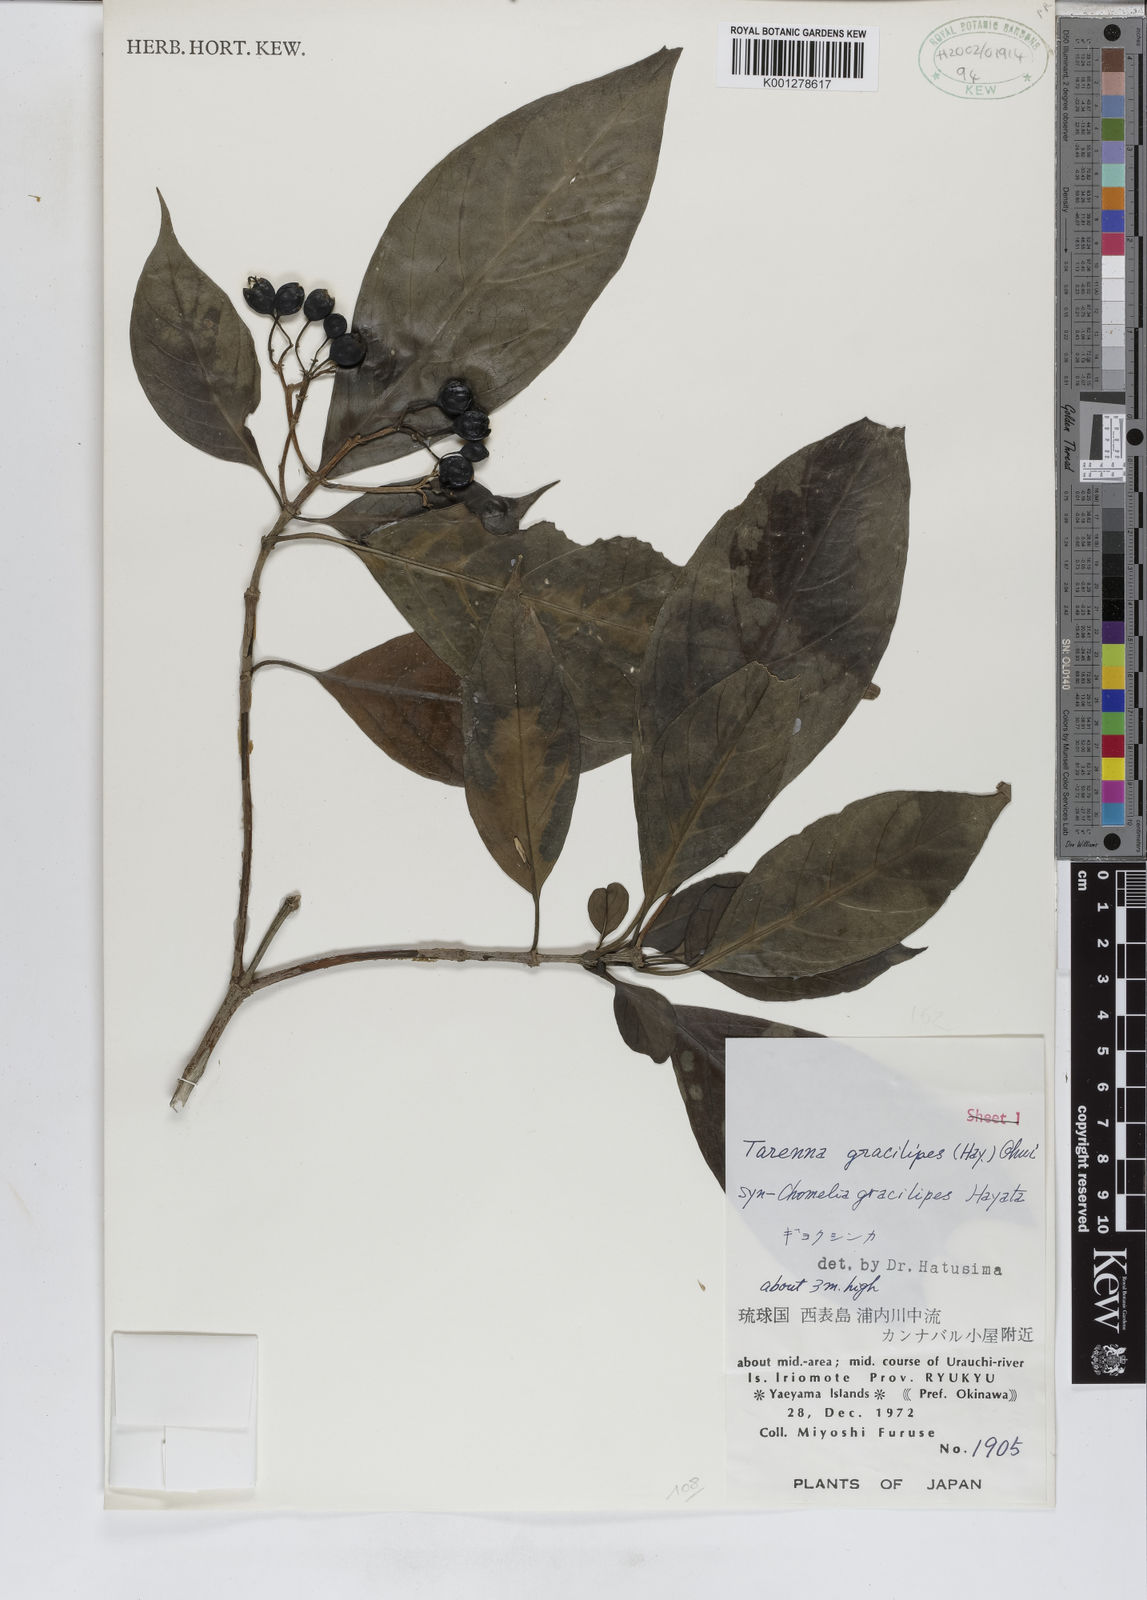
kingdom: Plantae
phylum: Tracheophyta
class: Magnoliopsida
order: Gentianales
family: Rubiaceae
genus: Tarenna
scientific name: Tarenna gracilipes
